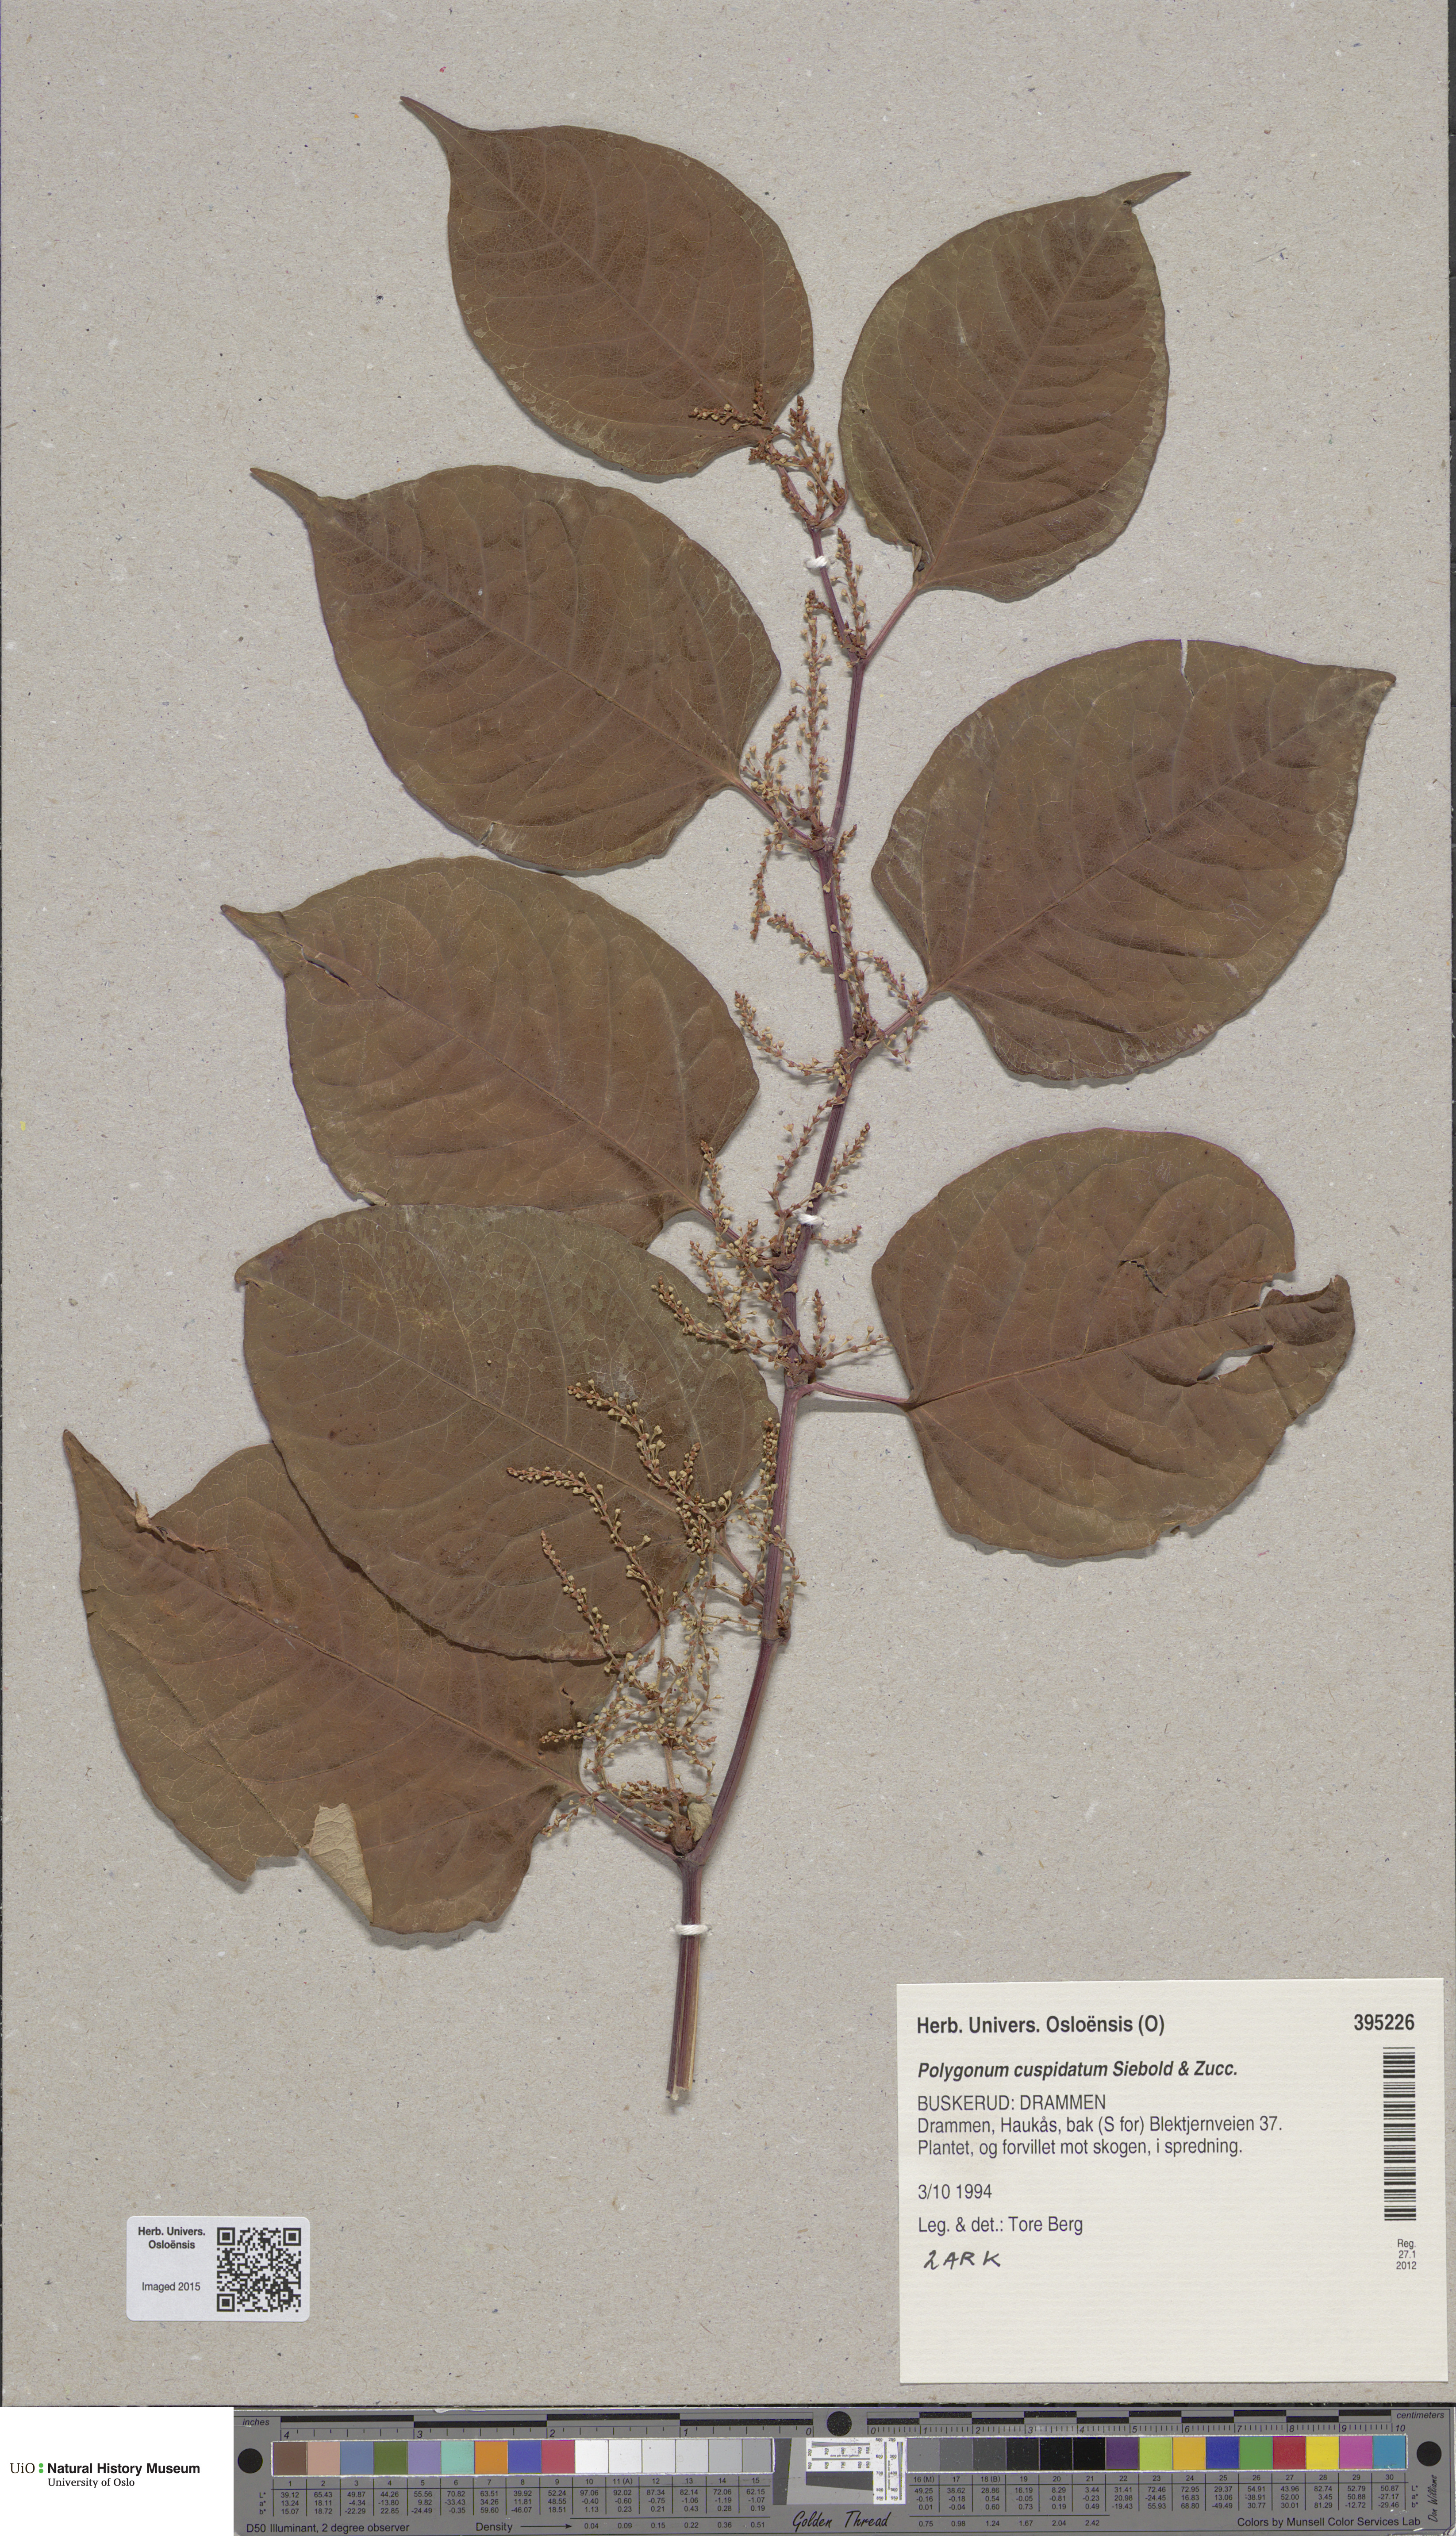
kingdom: Plantae
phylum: Tracheophyta
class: Magnoliopsida
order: Caryophyllales
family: Polygonaceae
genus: Reynoutria
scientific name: Reynoutria bohemica
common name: Bohemian knotweed
